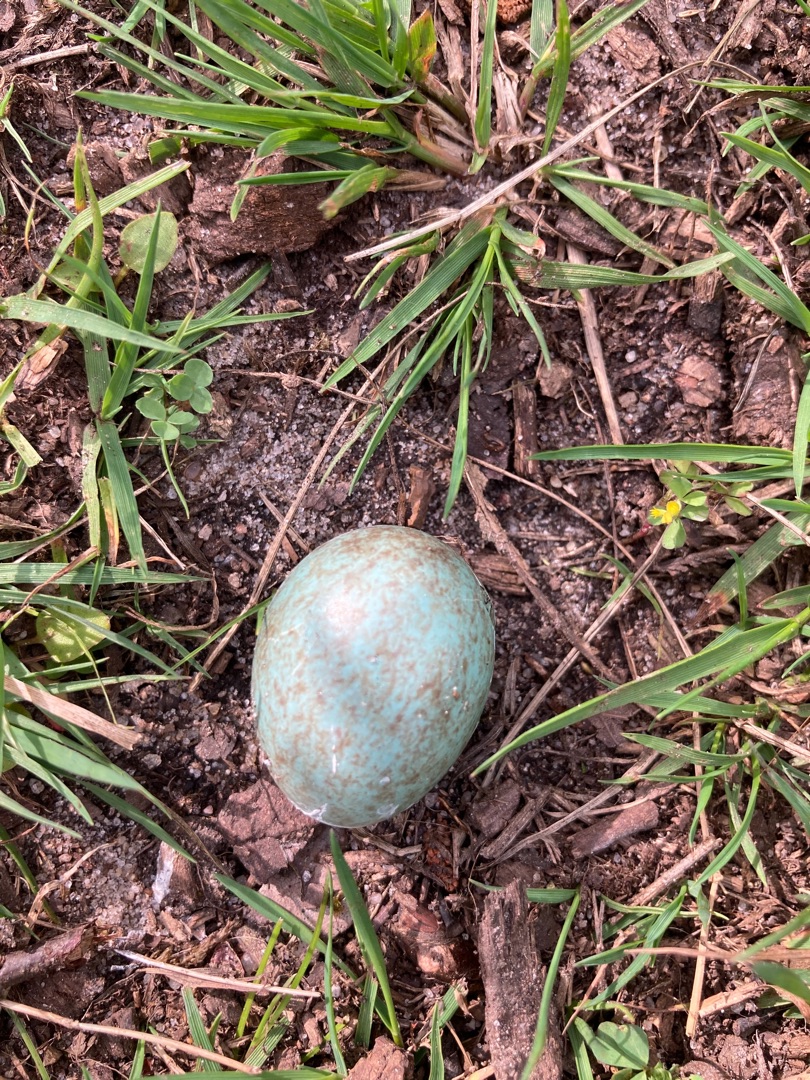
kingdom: Animalia
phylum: Chordata
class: Aves
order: Passeriformes
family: Turdidae
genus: Turdus
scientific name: Turdus merula
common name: Solsort
